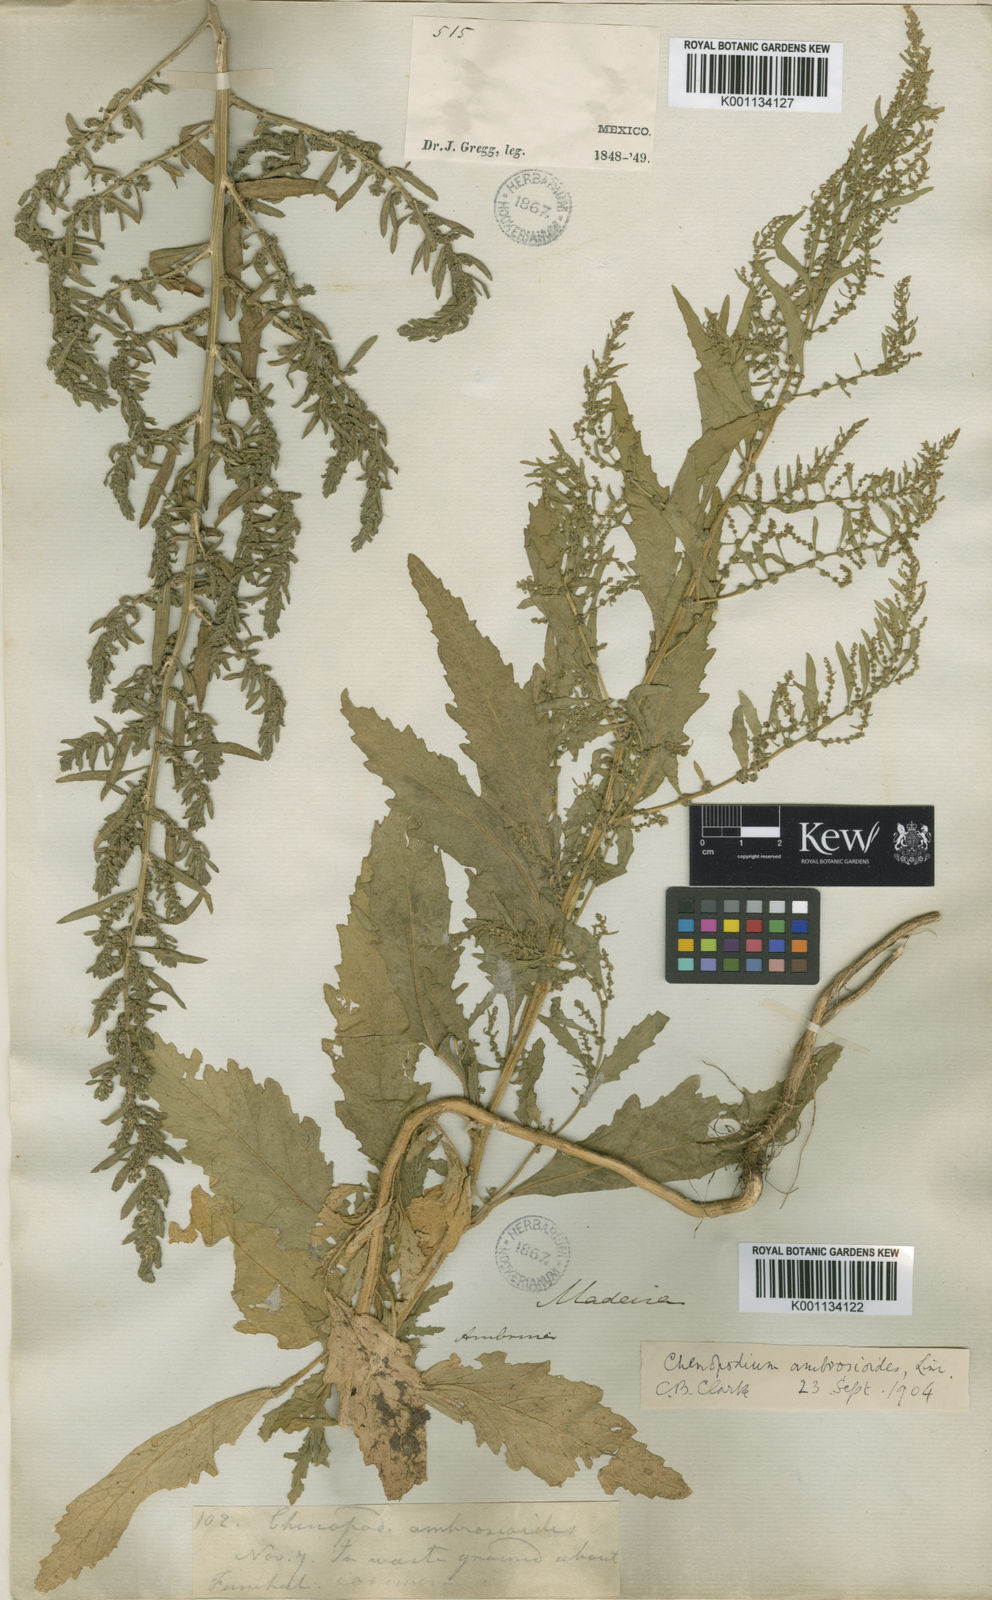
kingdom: Plantae
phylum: Tracheophyta
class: Magnoliopsida
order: Caryophyllales
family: Amaranthaceae
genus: Dysphania
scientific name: Dysphania ambrosioides
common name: Wormseed
